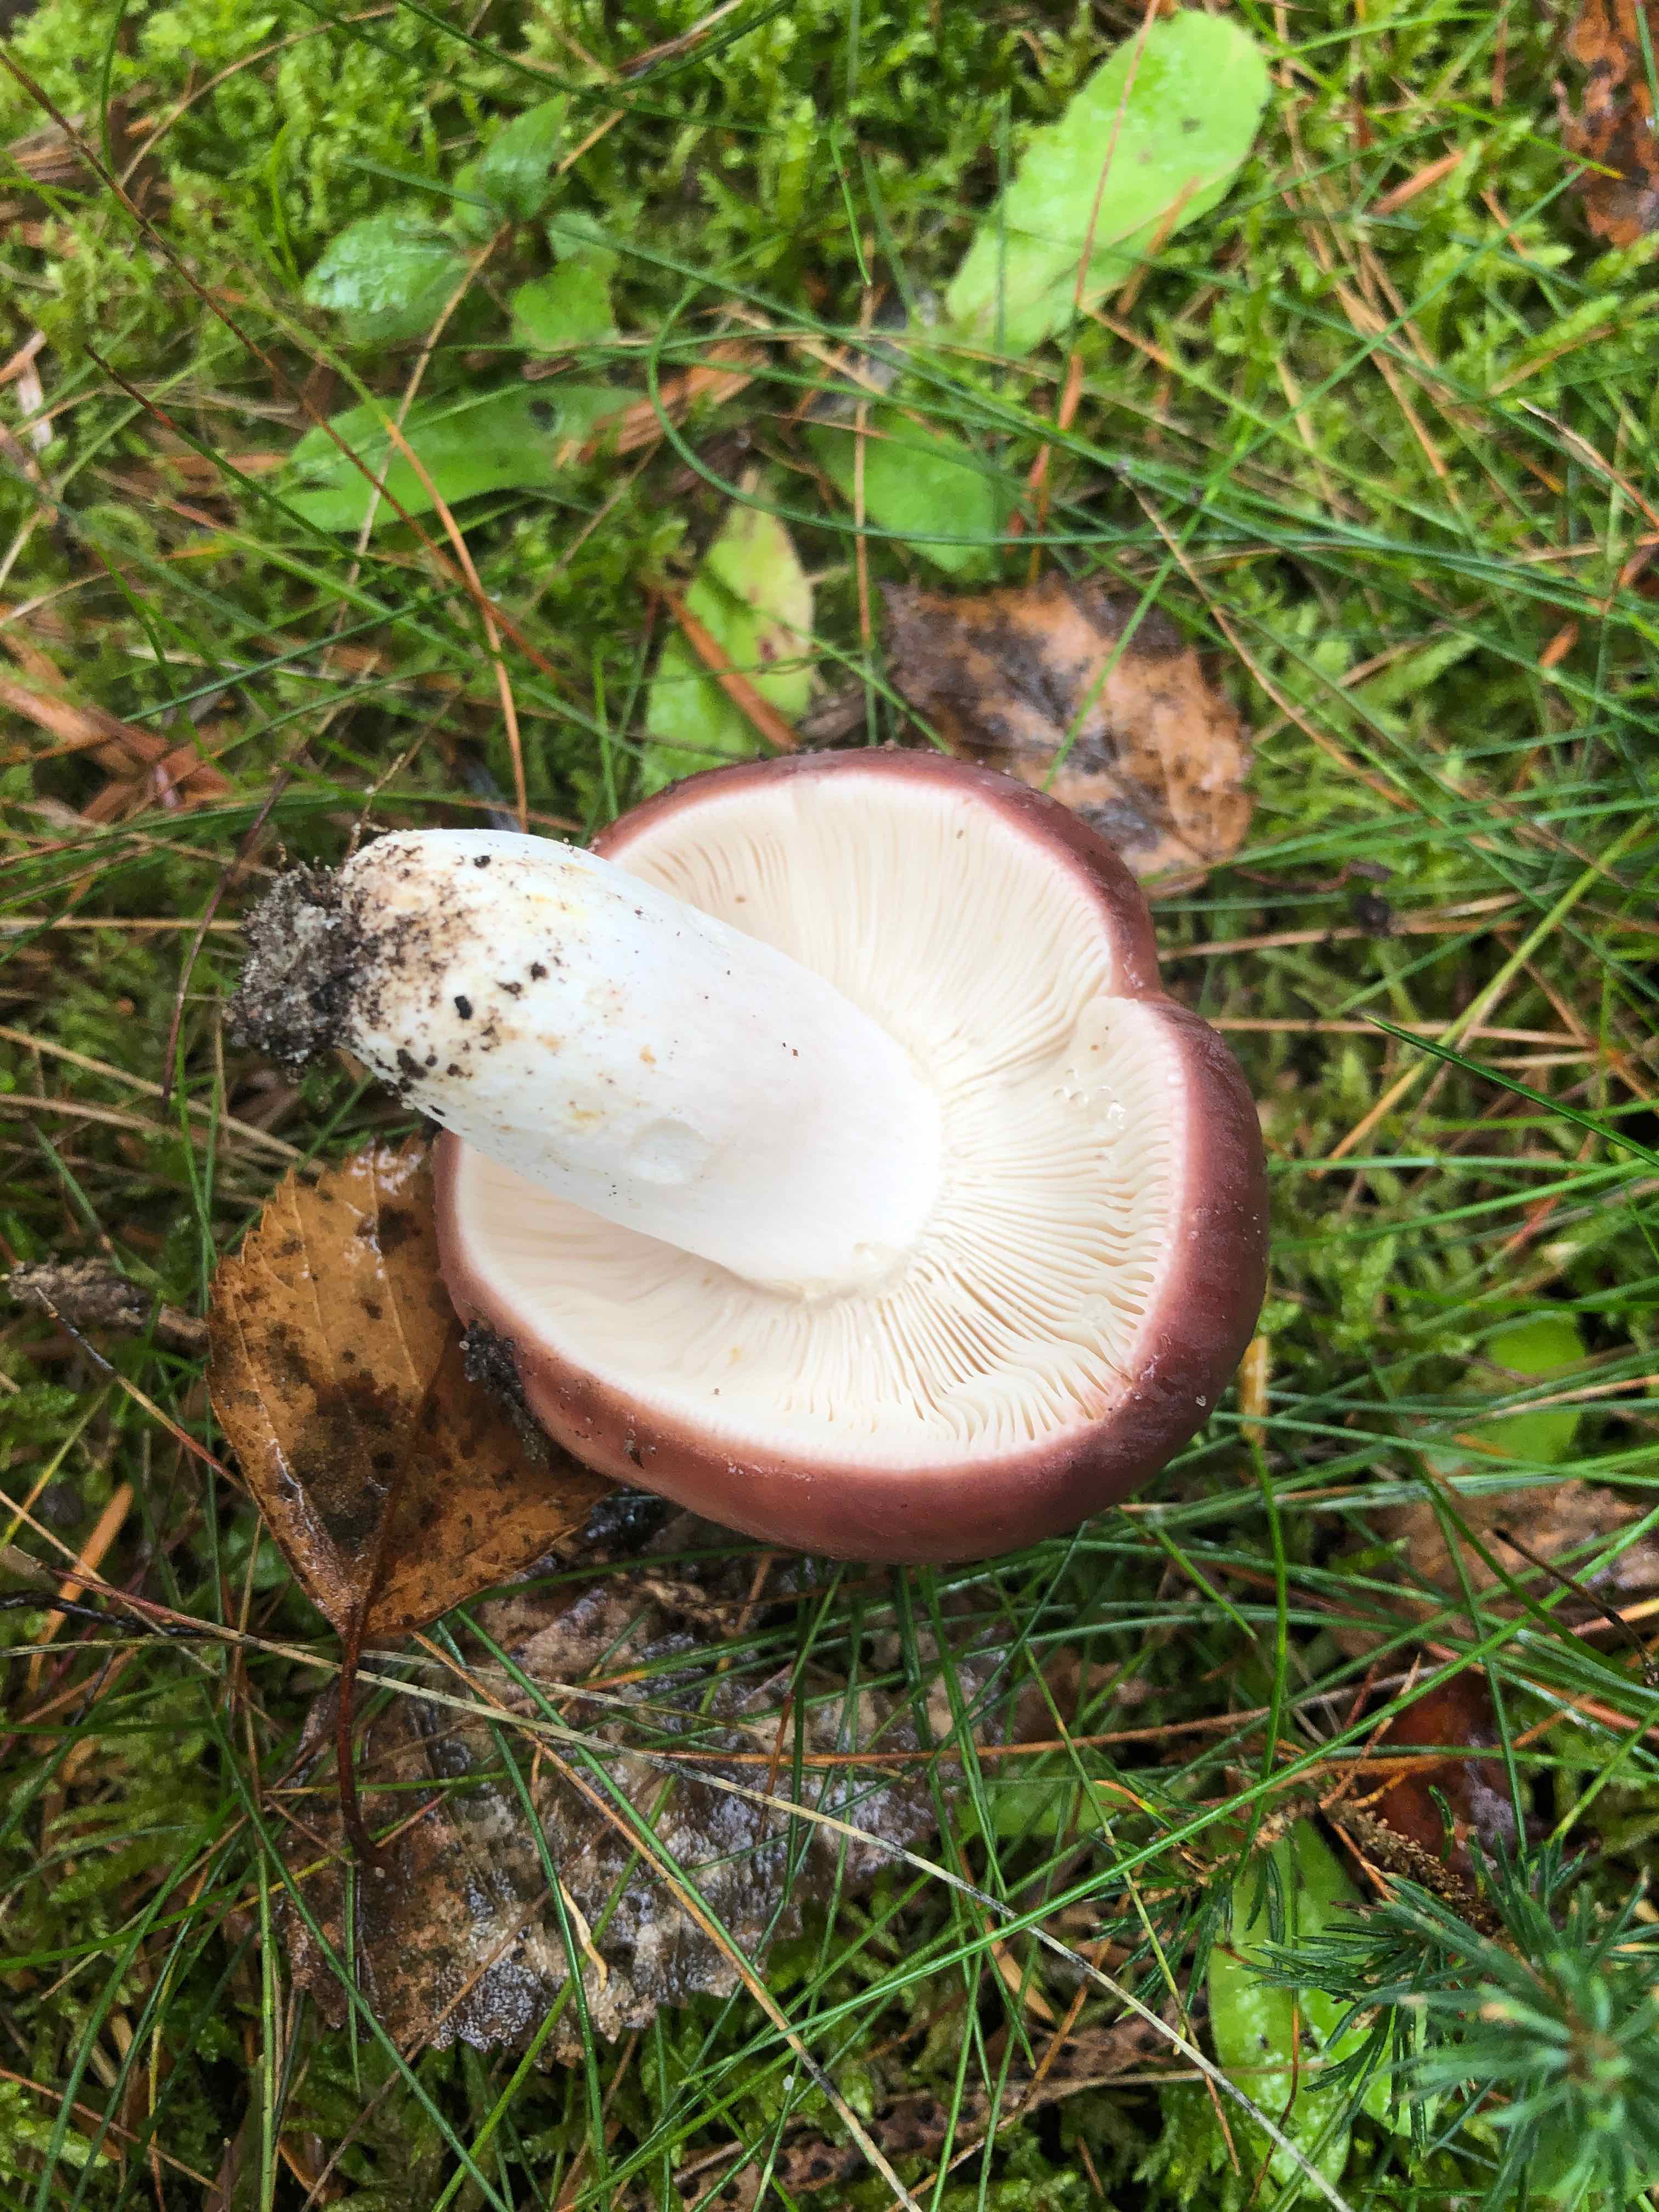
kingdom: Fungi
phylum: Basidiomycota
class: Agaricomycetes
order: Russulales
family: Russulaceae
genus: Russula
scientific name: Russula vesca
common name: spiselig skørhat
